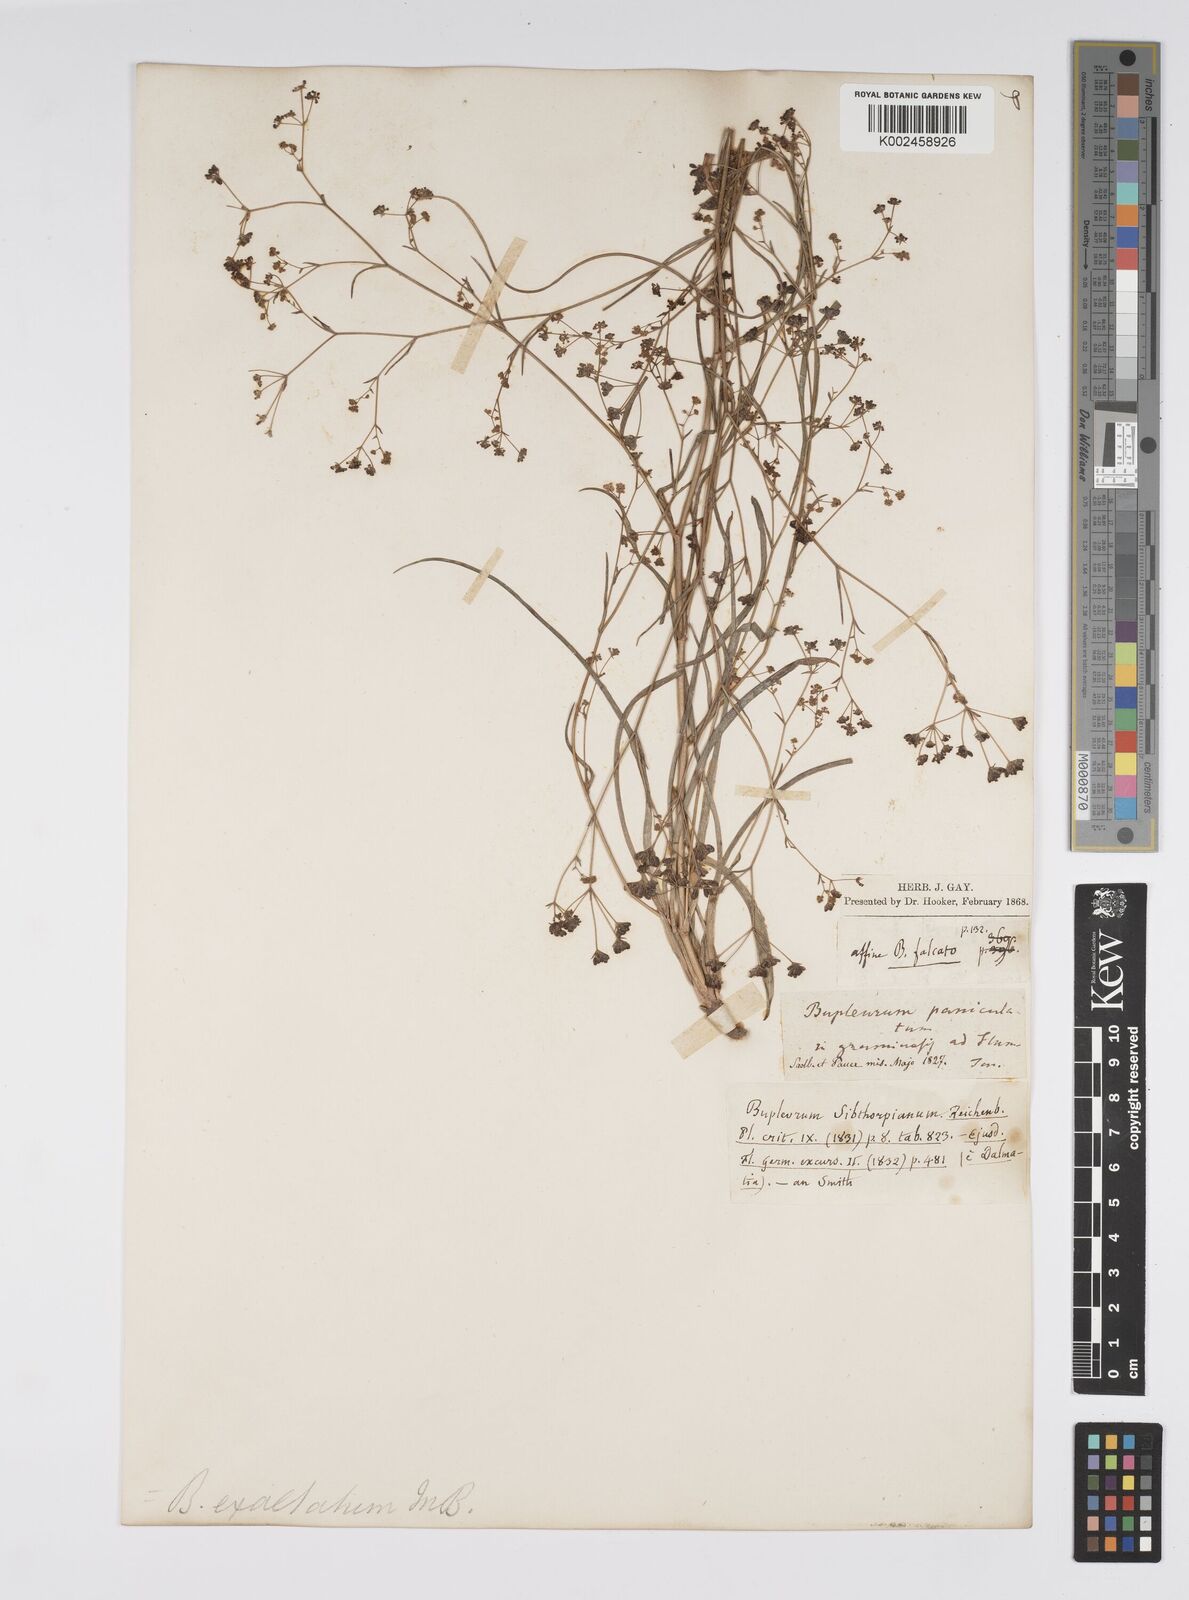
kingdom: Plantae
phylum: Tracheophyta
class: Magnoliopsida
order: Apiales
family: Apiaceae
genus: Bupleurum
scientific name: Bupleurum falcatum
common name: Sickle-leaved hare's-ear
